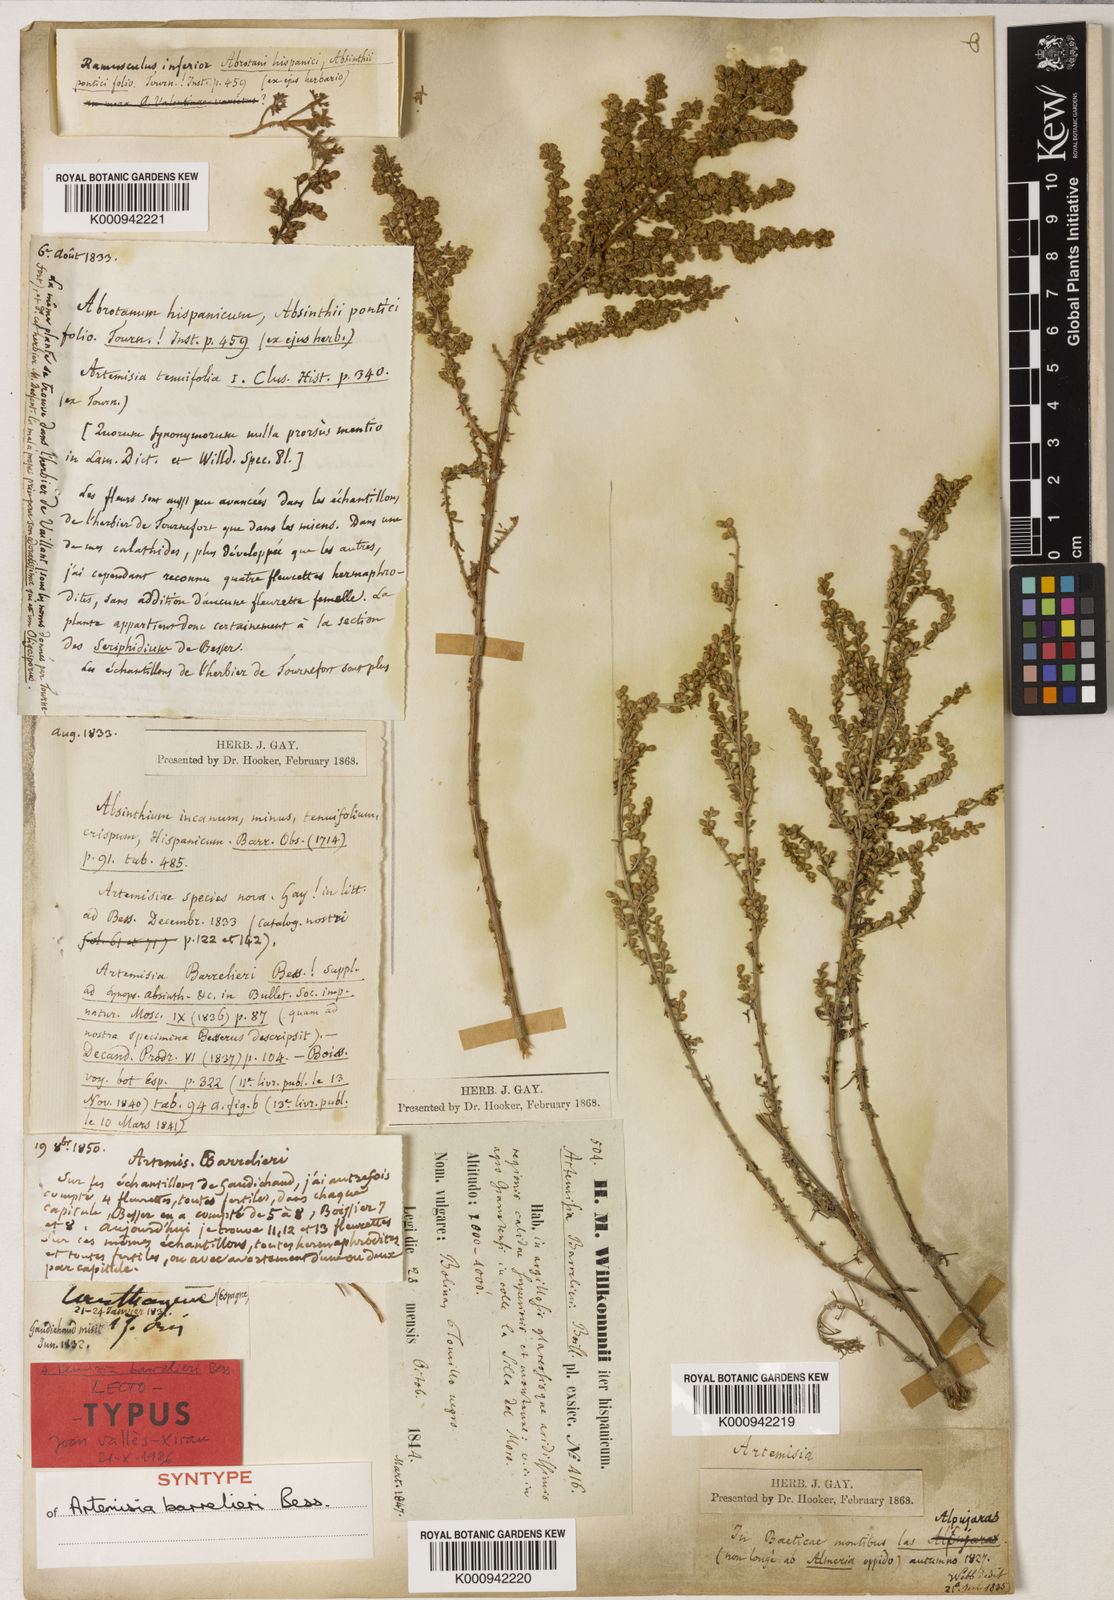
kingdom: Plantae
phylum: Tracheophyta
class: Magnoliopsida
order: Asterales
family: Asteraceae
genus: Seriphidium
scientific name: Seriphidium
